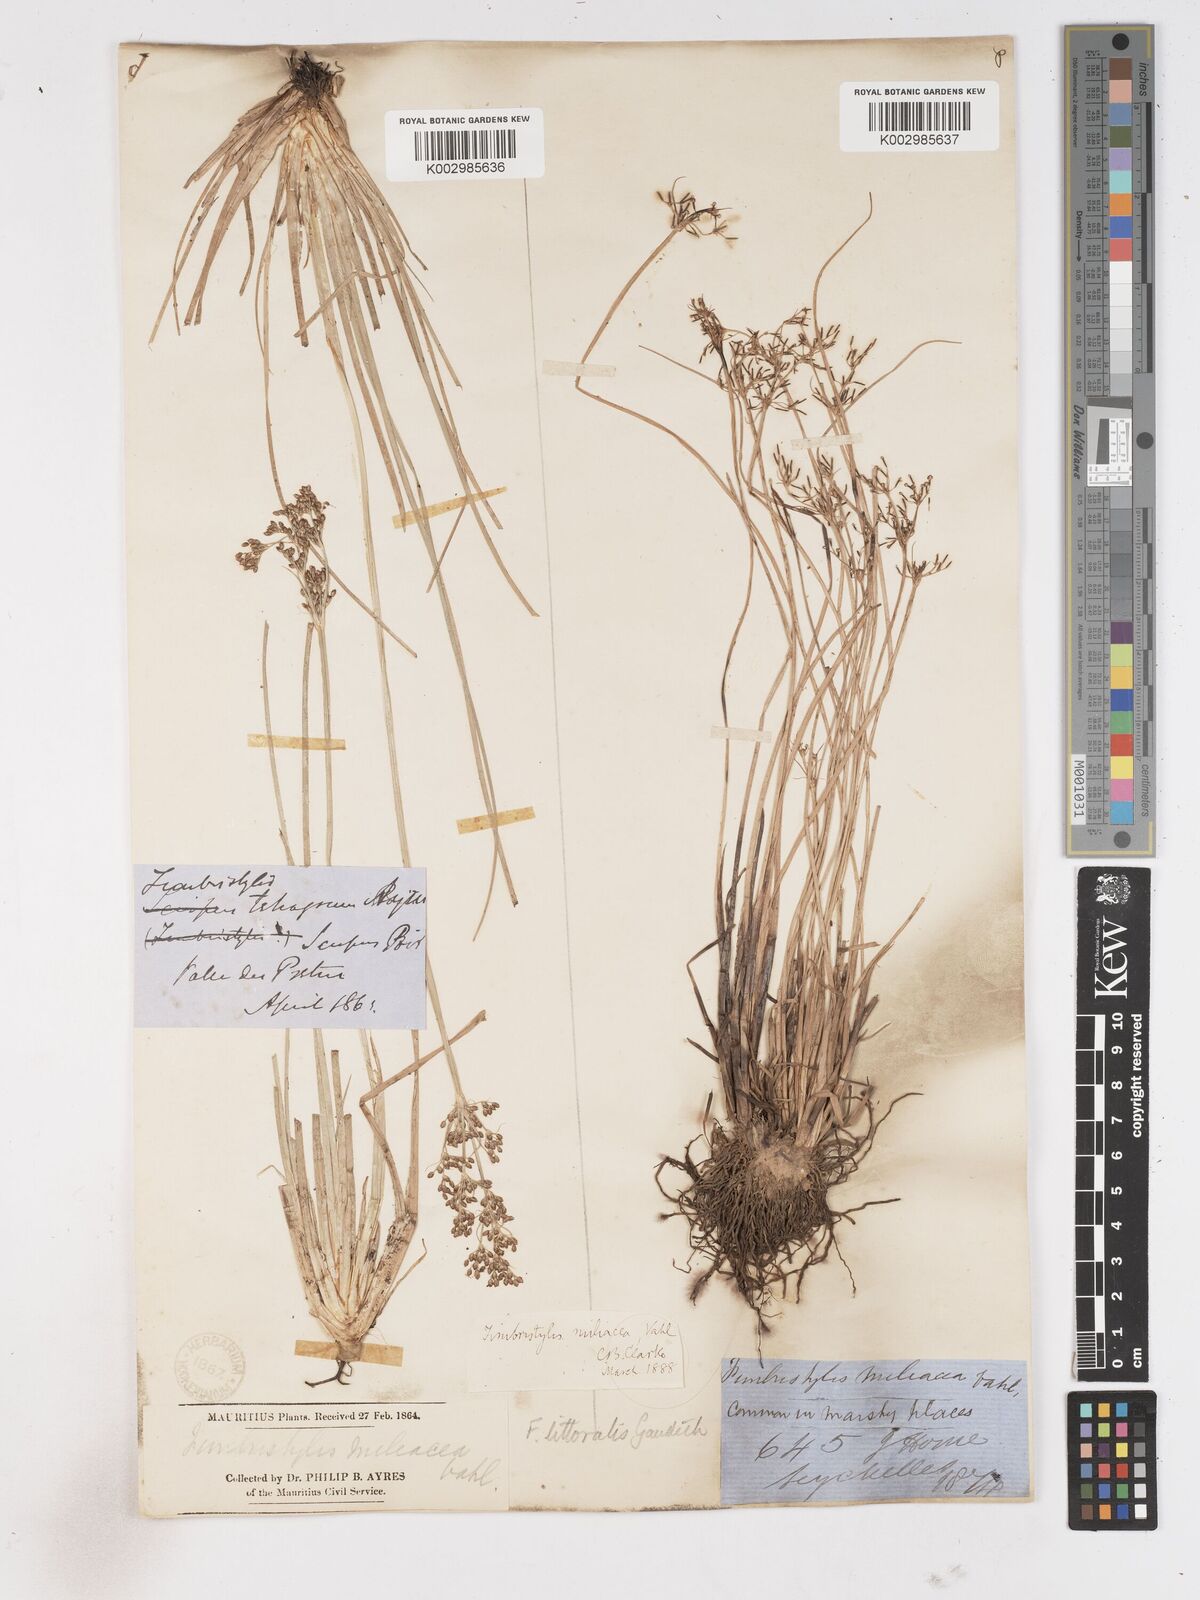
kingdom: Plantae
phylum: Tracheophyta
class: Liliopsida
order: Poales
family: Cyperaceae
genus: Fimbristylis
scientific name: Fimbristylis littoralis
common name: Fimbry
